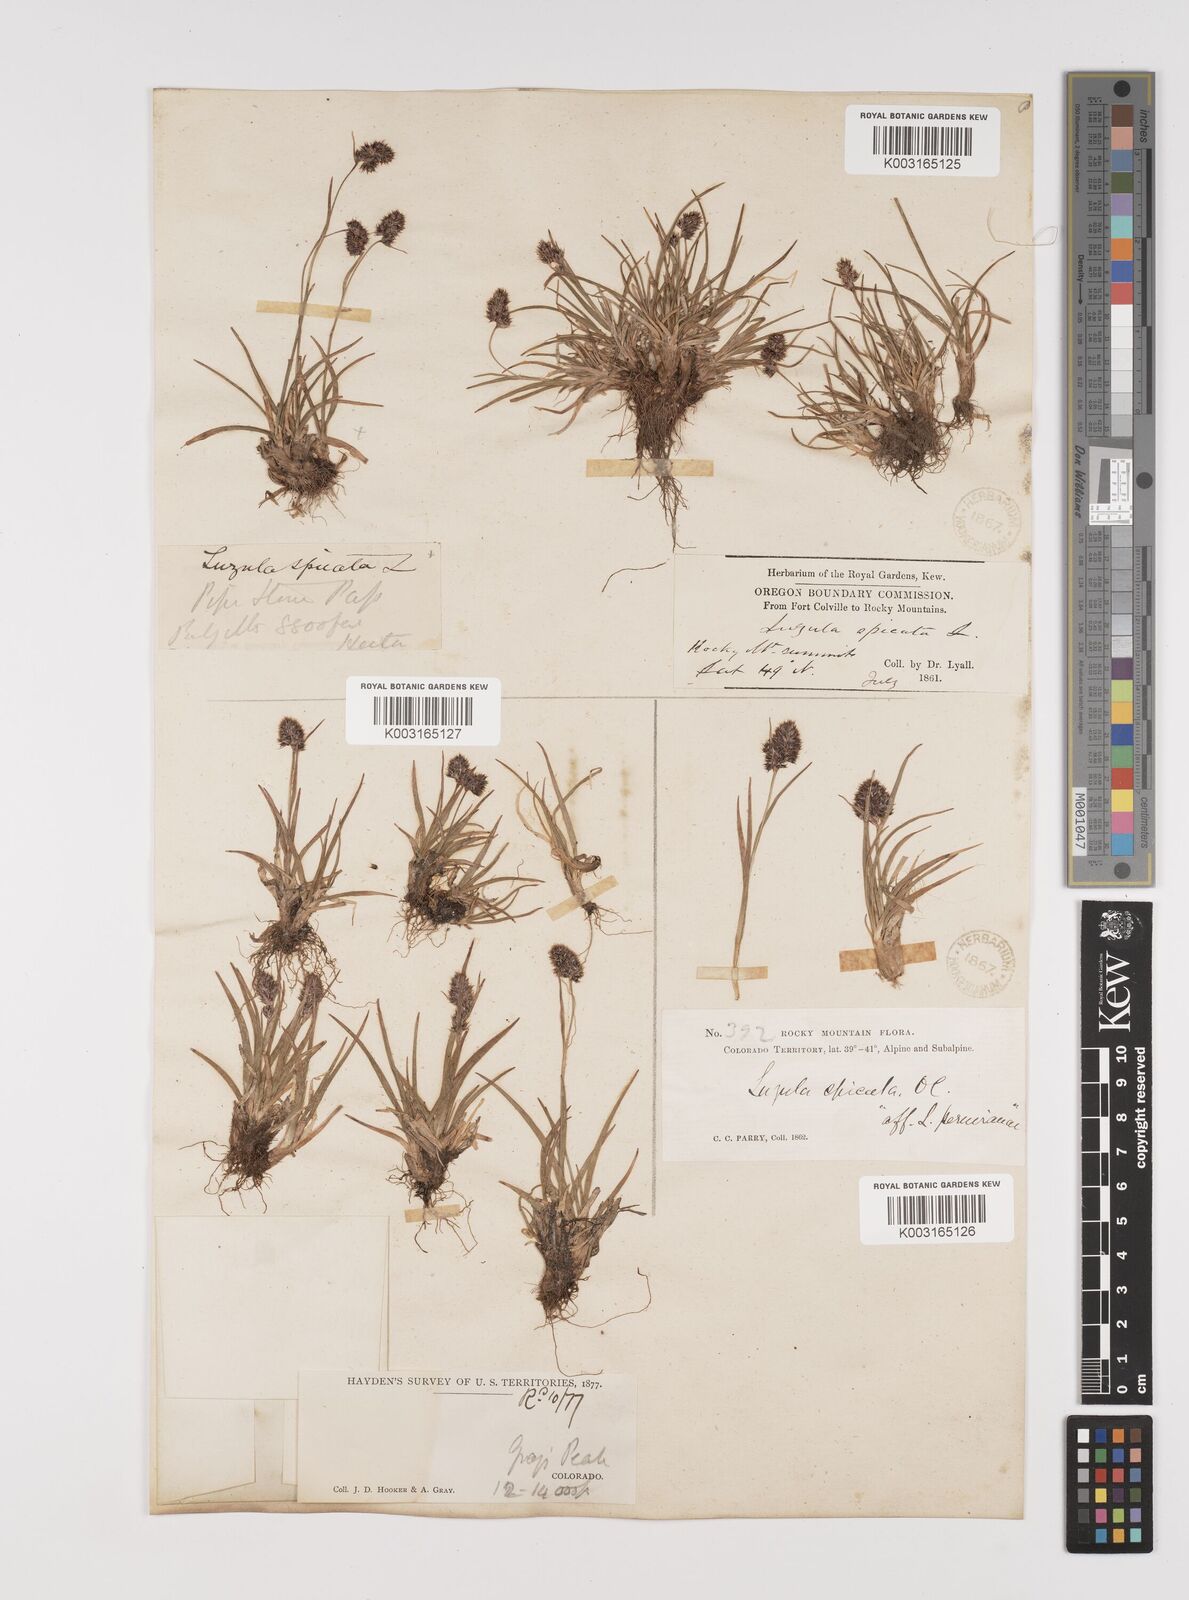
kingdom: Plantae
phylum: Tracheophyta
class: Liliopsida
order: Poales
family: Juncaceae
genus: Luzula
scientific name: Luzula spicata
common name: Spiked wood-rush
